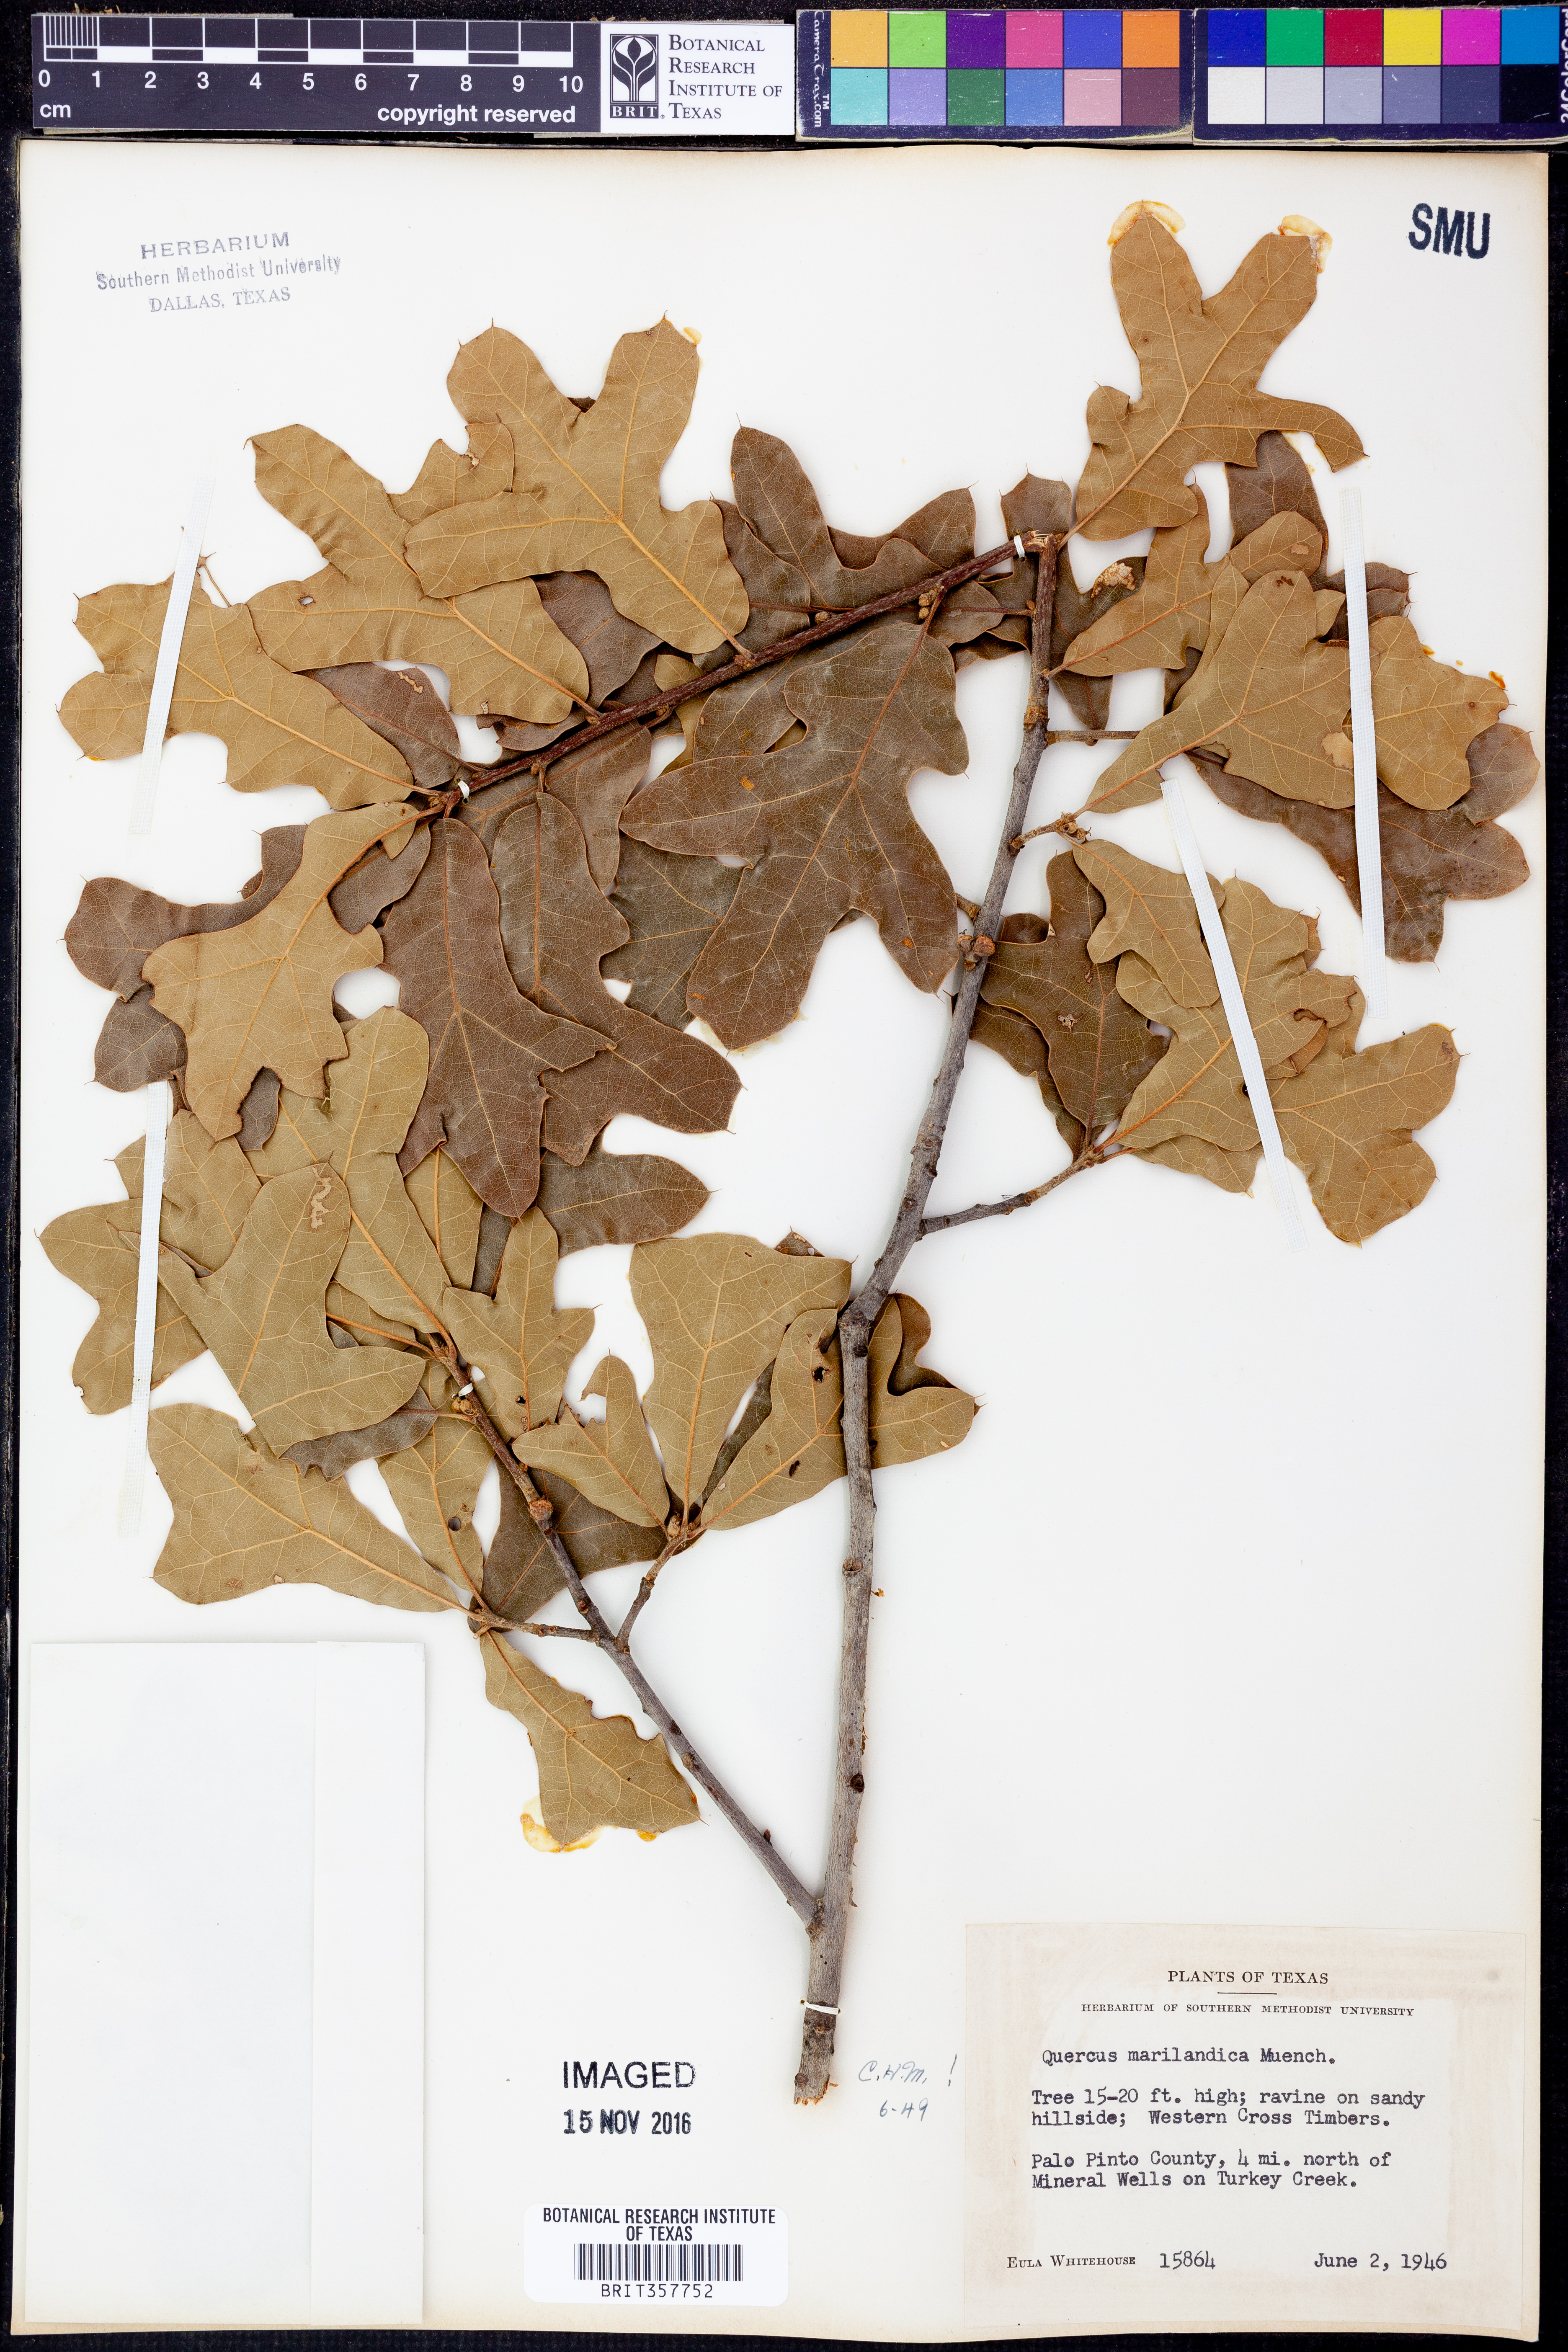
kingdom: Plantae
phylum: Tracheophyta
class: Magnoliopsida
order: Fagales
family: Fagaceae
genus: Quercus
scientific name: Quercus marilandica
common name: Blackjack oak
